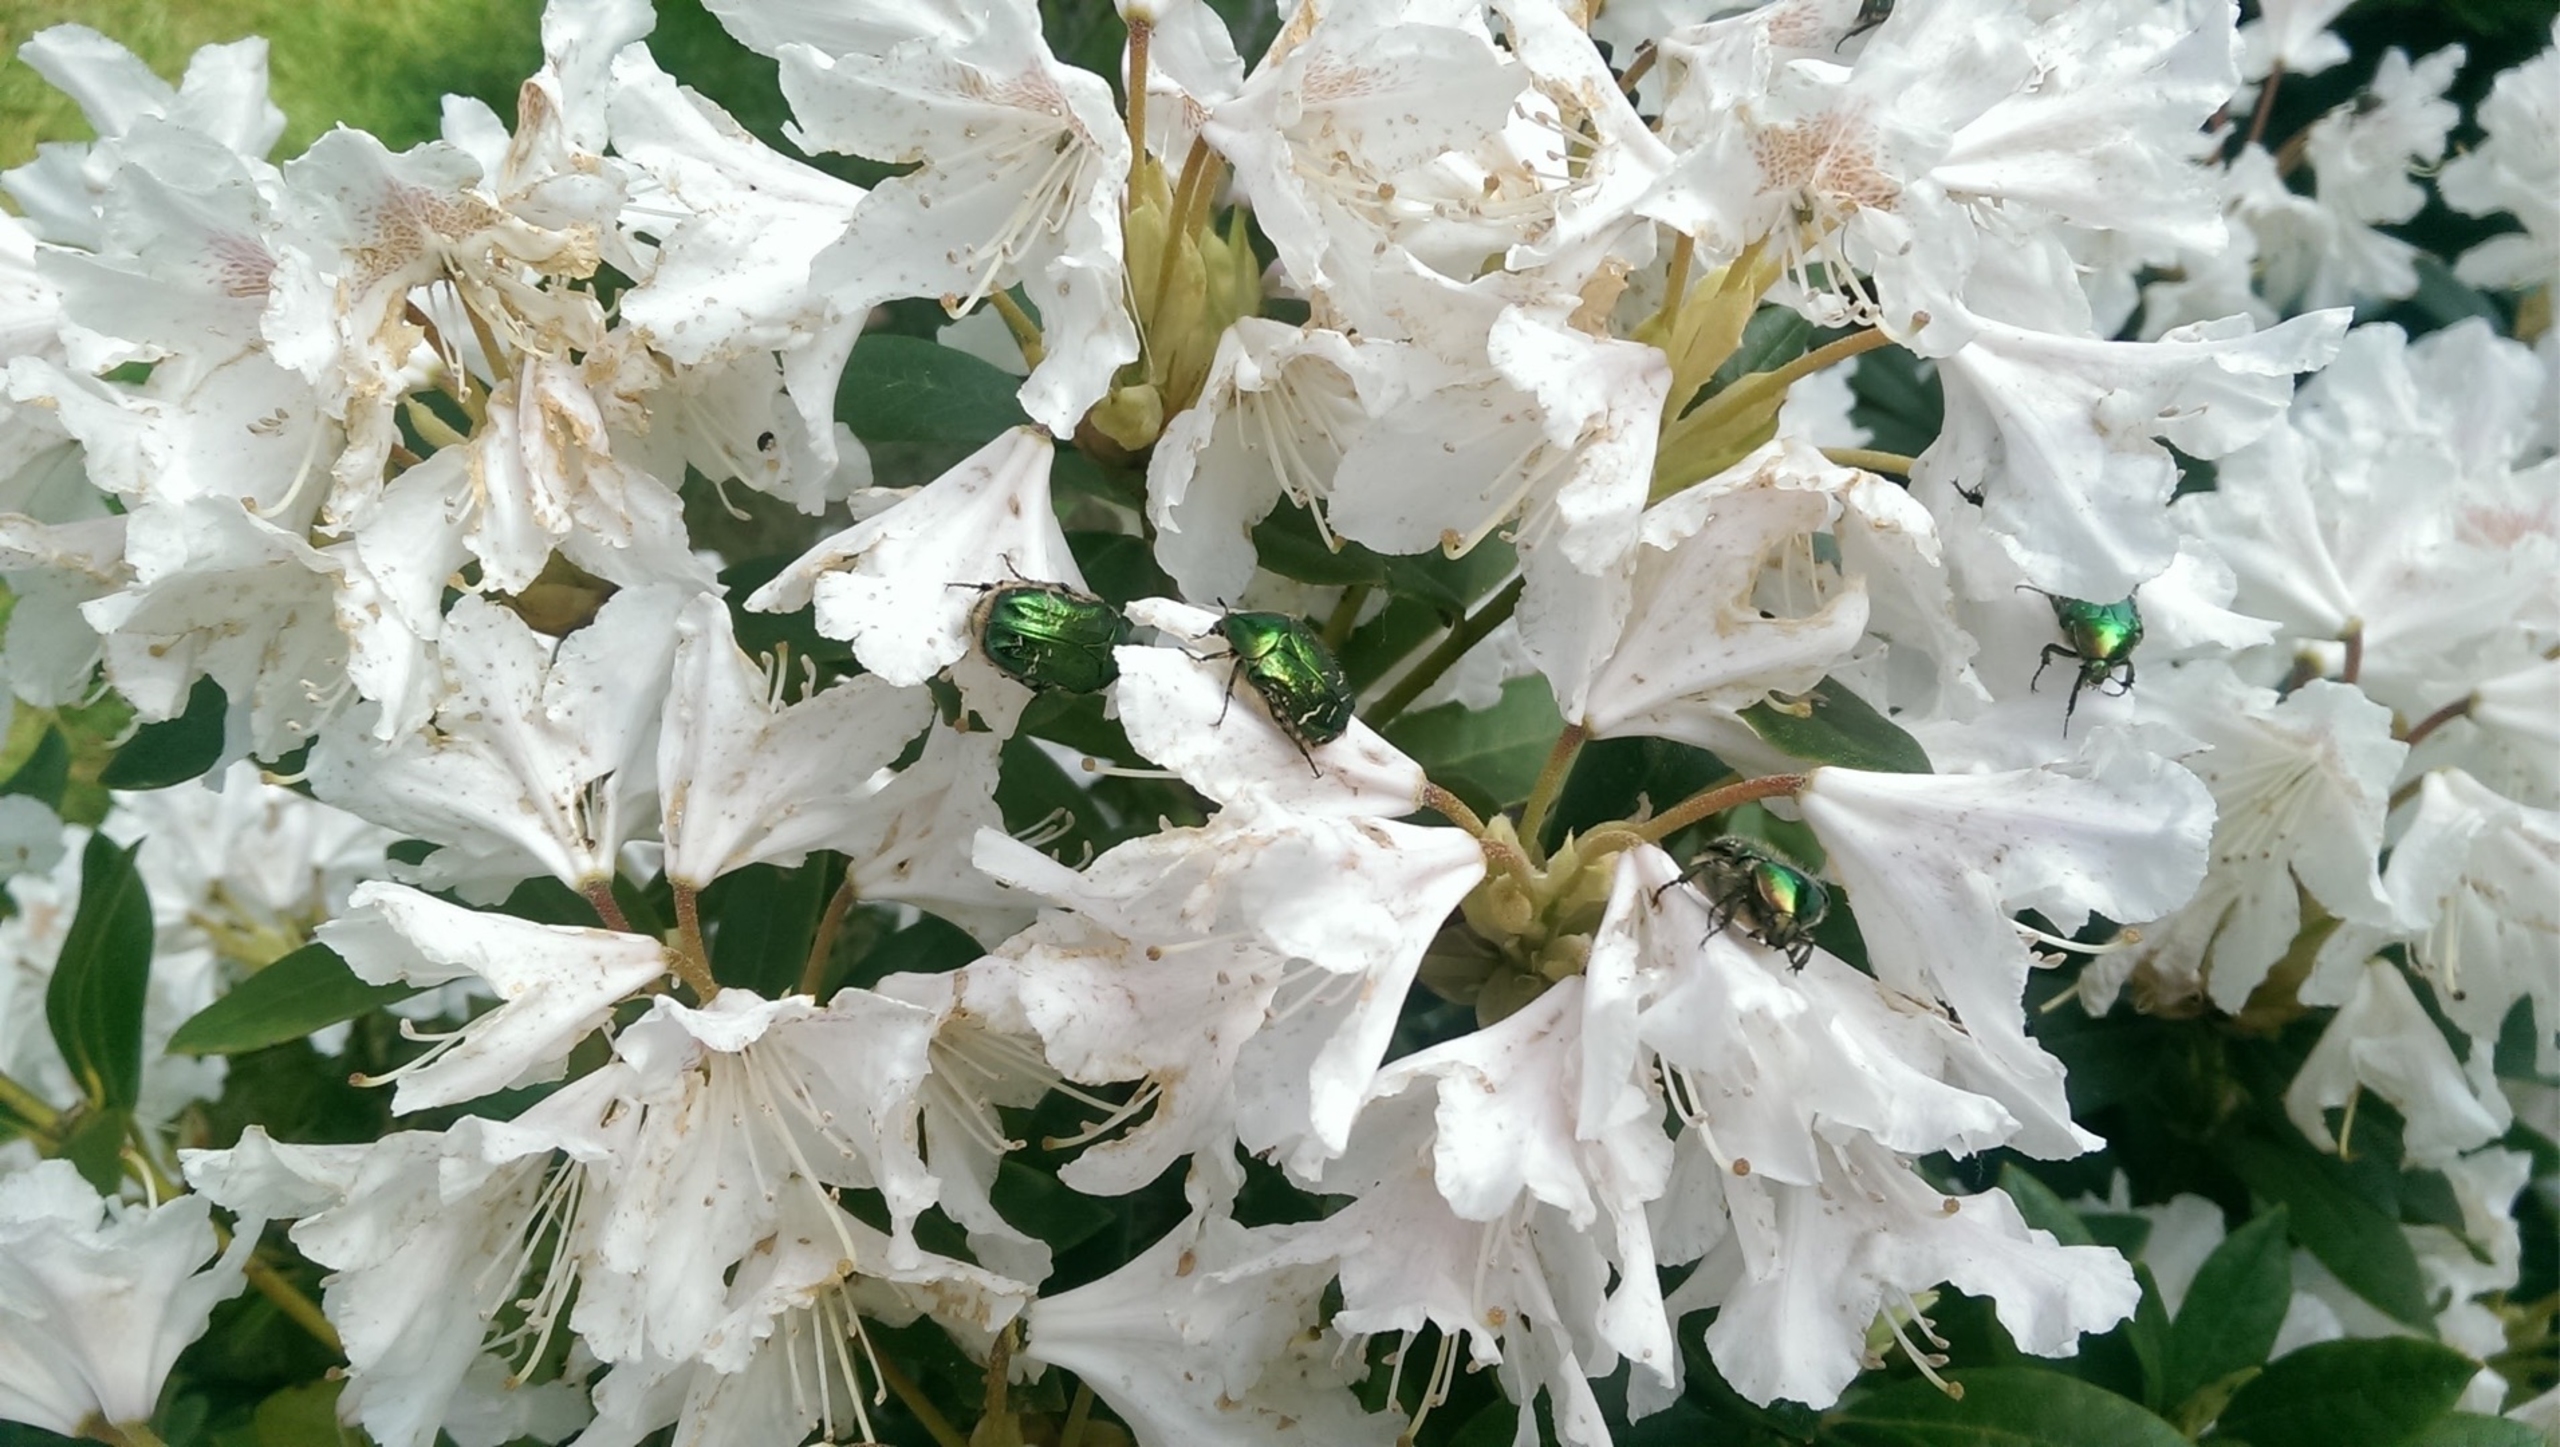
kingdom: Animalia
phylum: Arthropoda
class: Insecta
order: Coleoptera
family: Scarabaeidae
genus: Cetonia
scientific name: Cetonia aurata
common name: Grøn guldbasse
